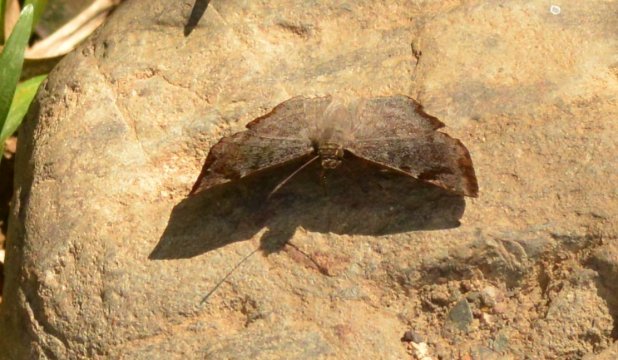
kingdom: Animalia
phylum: Arthropoda
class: Insecta
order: Lepidoptera
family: Hesperiidae
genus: Antigonus
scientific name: Antigonus erosus
